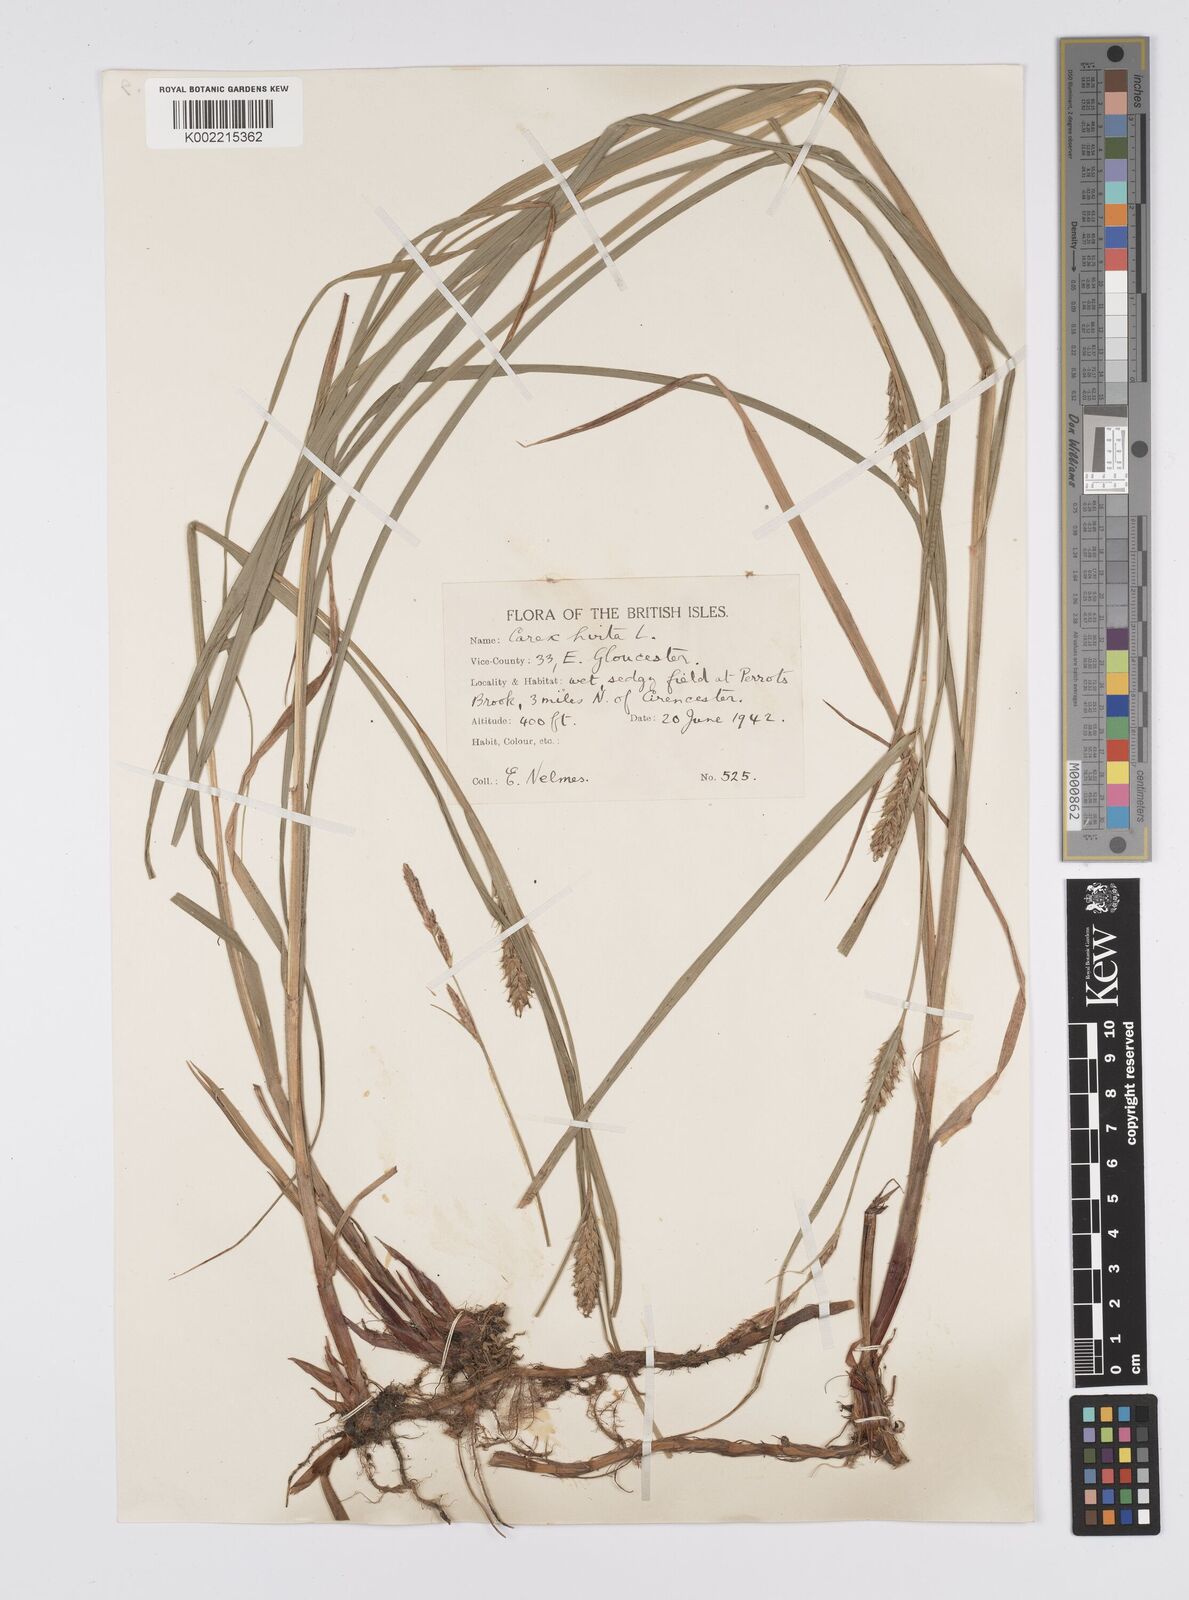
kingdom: Plantae
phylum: Tracheophyta
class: Liliopsida
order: Poales
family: Cyperaceae
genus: Carex
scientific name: Carex hirta
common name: Hairy sedge
